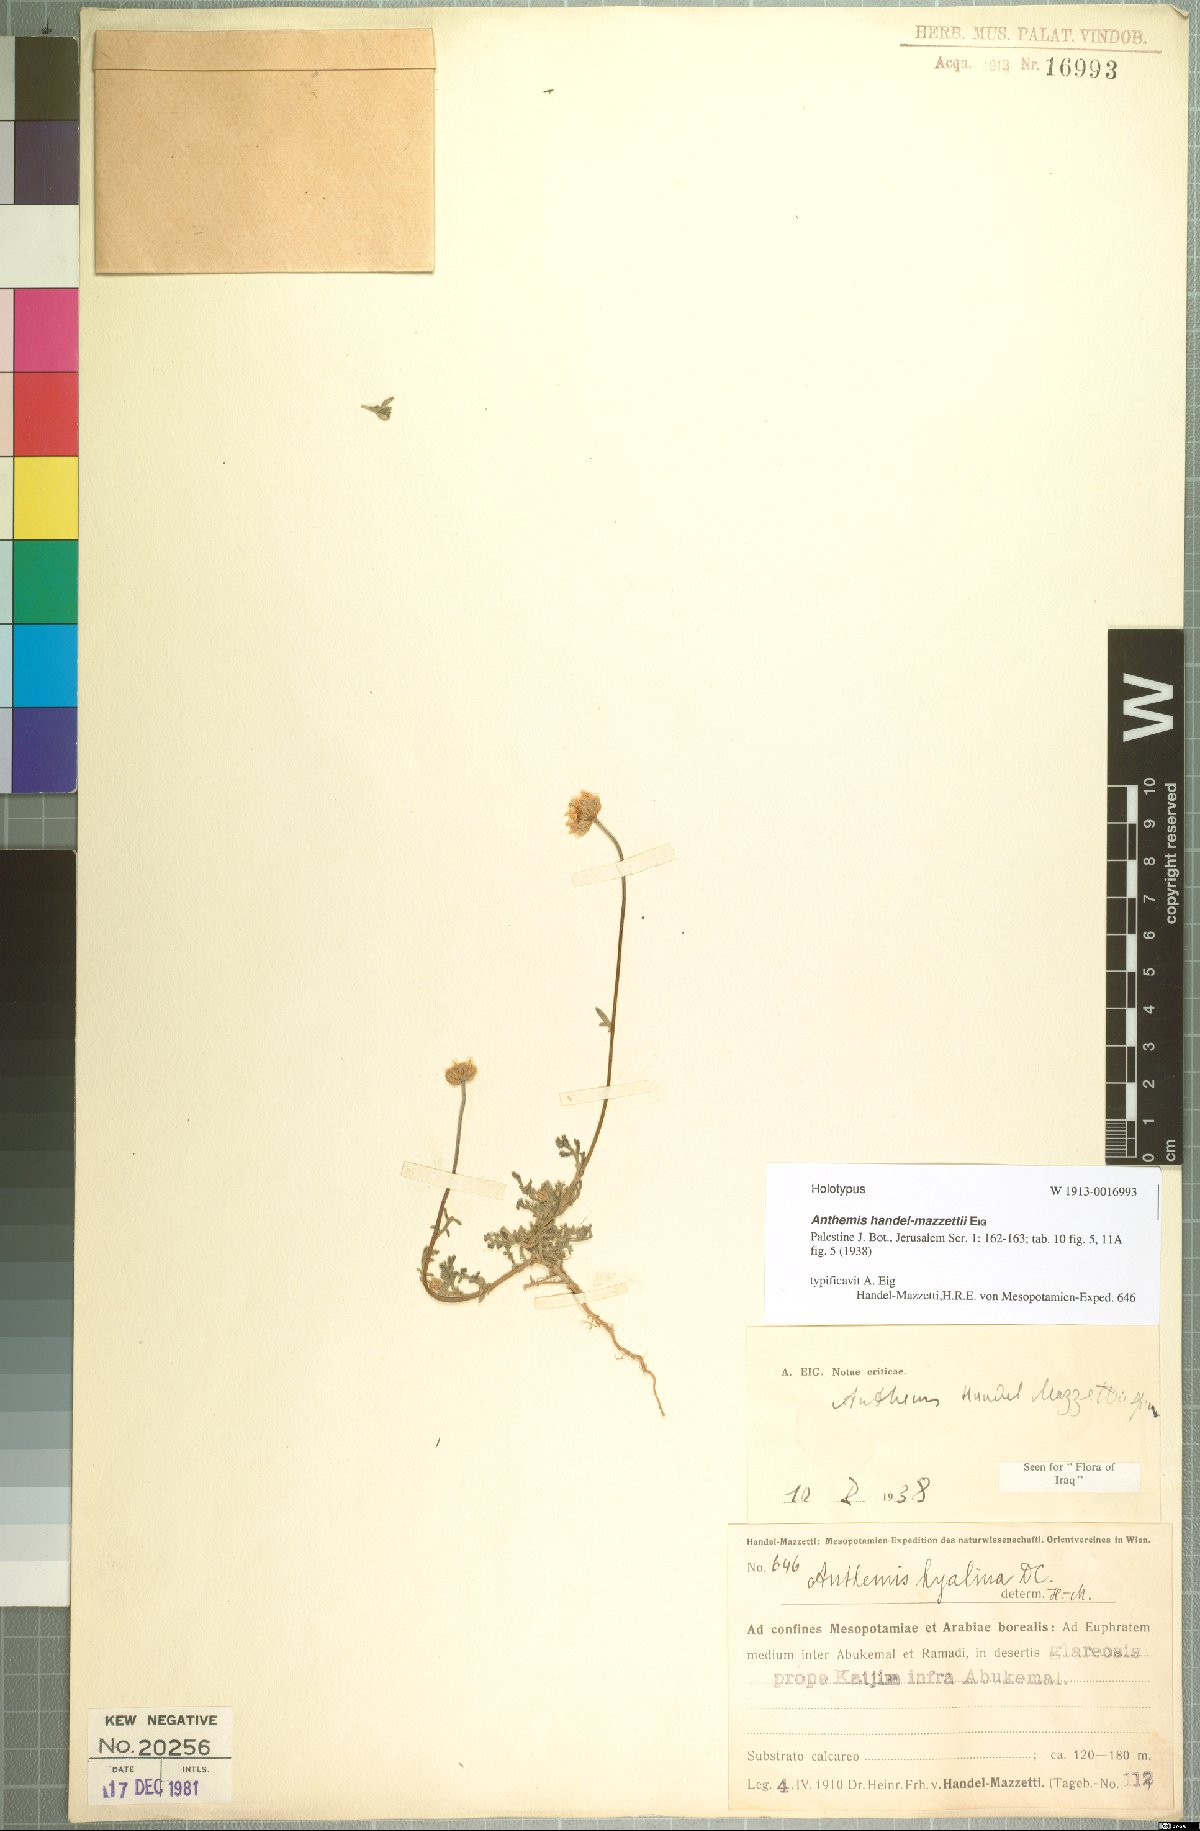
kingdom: Plantae
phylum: Tracheophyta
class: Magnoliopsida
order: Asterales
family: Asteraceae
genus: Anthemis
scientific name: Anthemis handel-mazzettii
